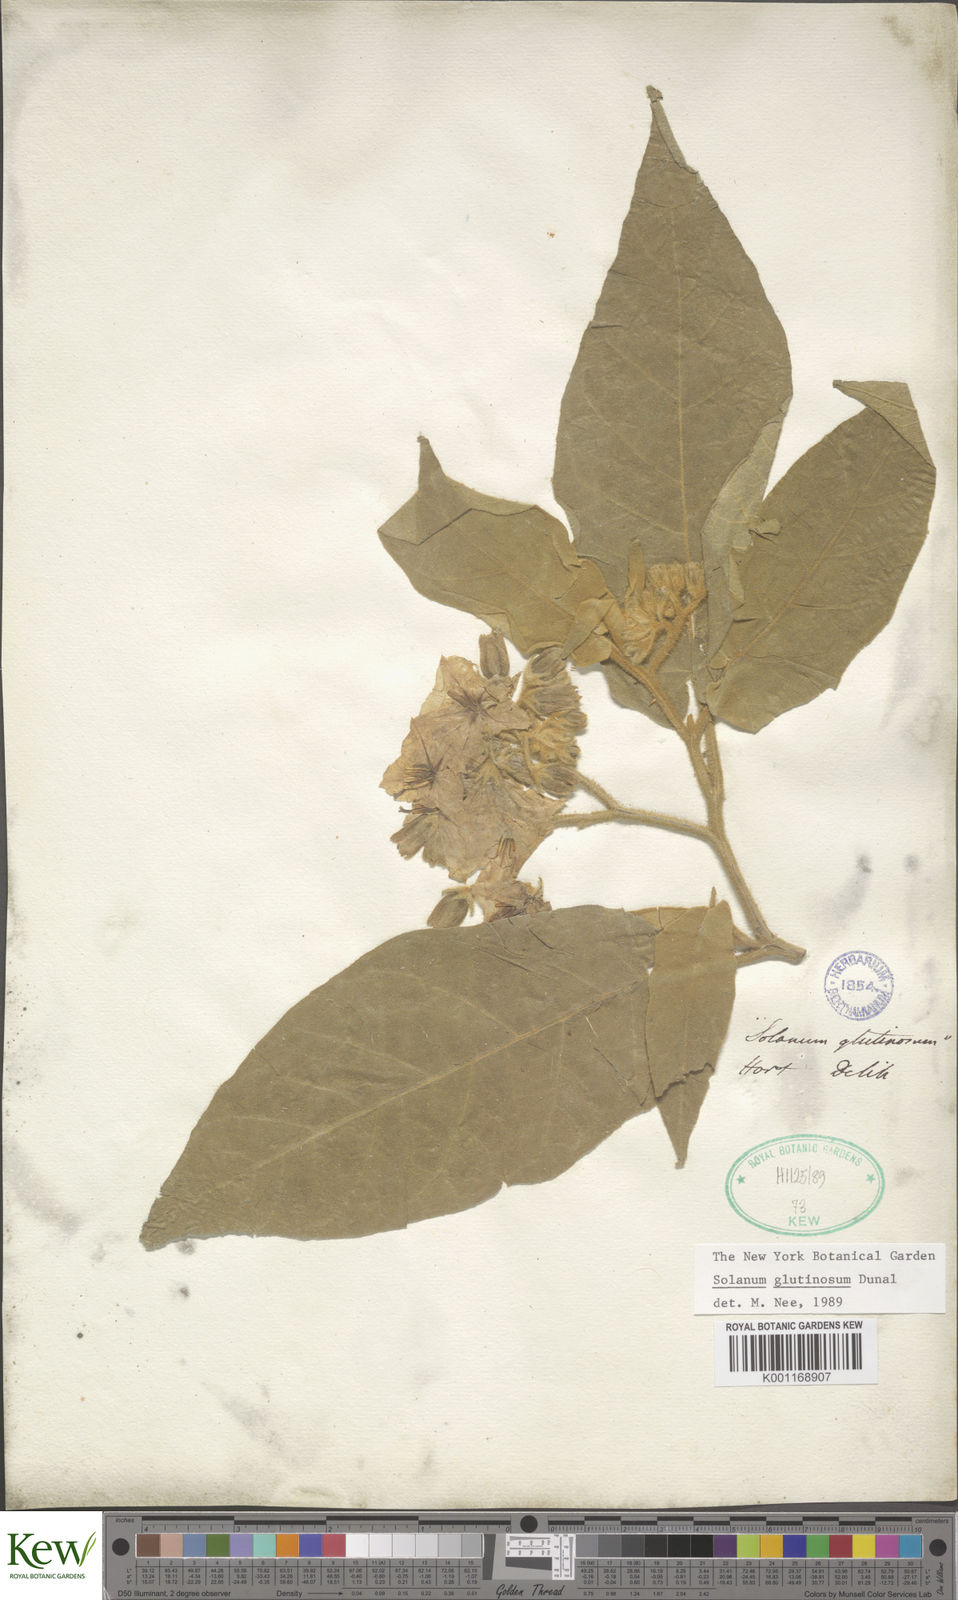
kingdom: Plantae
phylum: Tracheophyta
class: Magnoliopsida
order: Solanales
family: Solanaceae
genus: Solanum
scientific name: Solanum glutinosum
